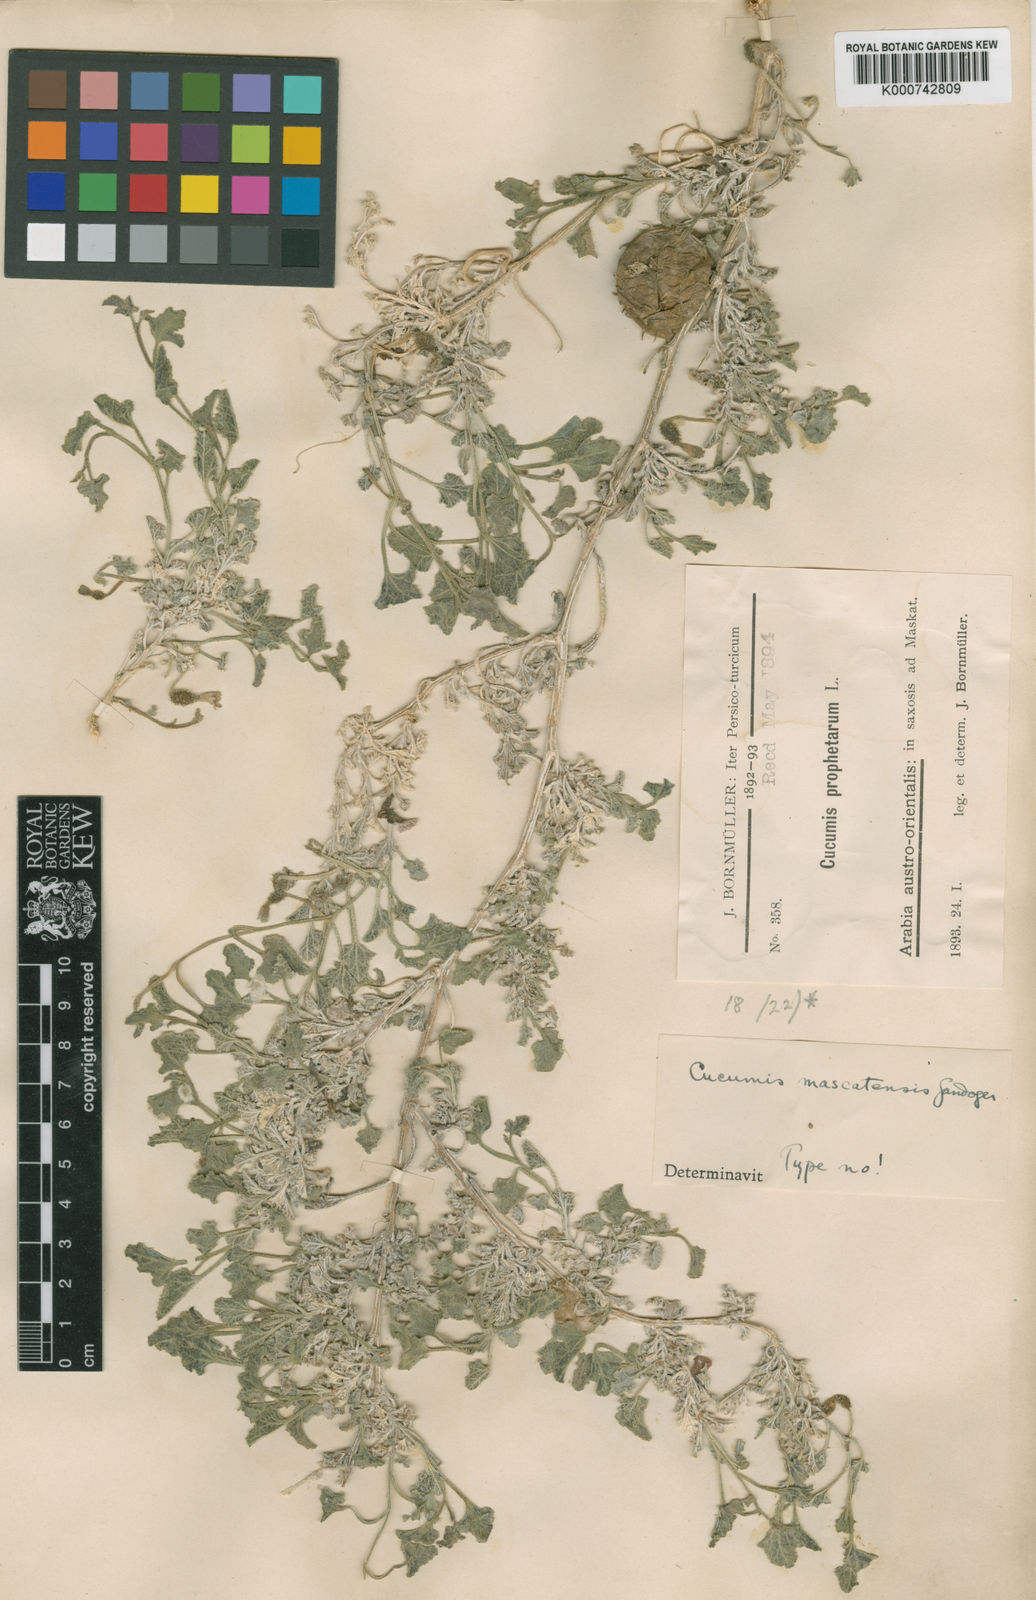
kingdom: Plantae
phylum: Tracheophyta
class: Magnoliopsida
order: Cucurbitales
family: Cucurbitaceae
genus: Cucumis
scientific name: Cucumis prophetarum
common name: Wild cucumber
